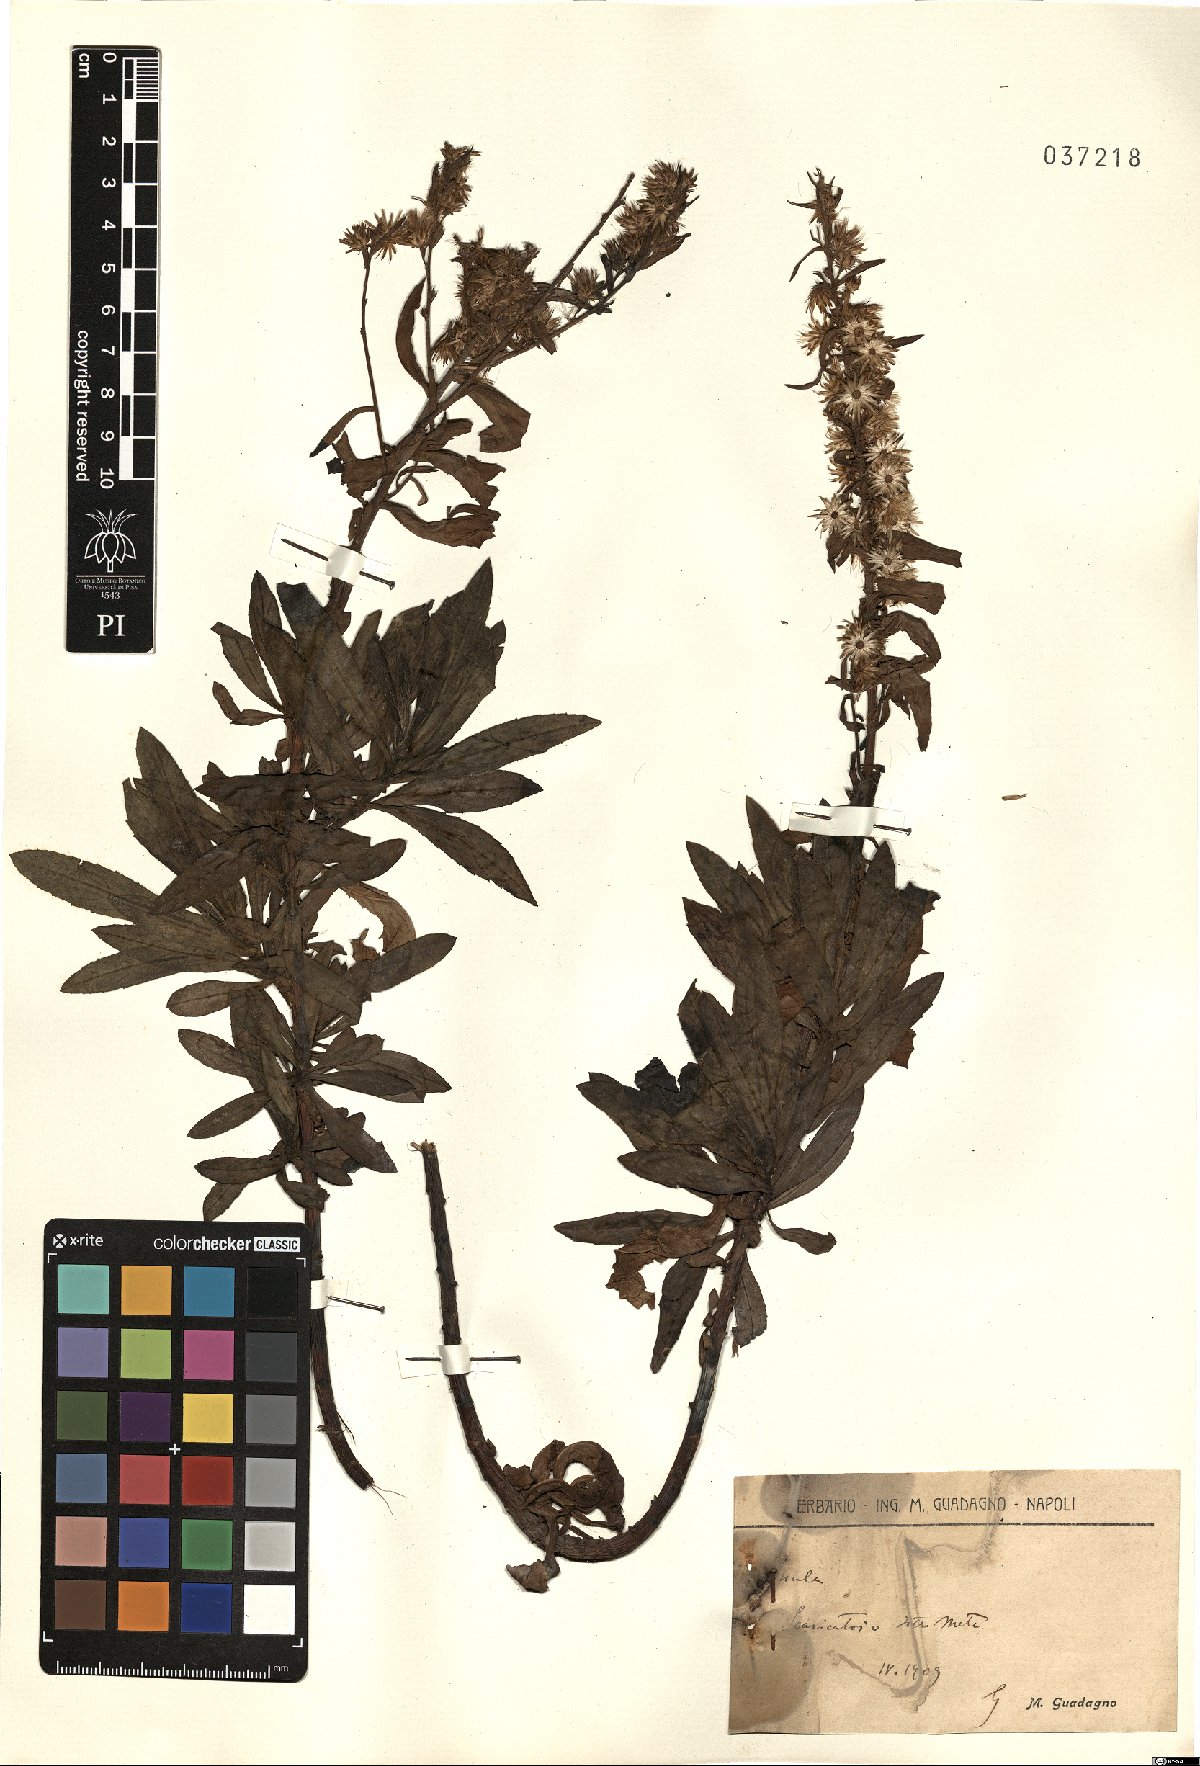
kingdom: Plantae
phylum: Tracheophyta
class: Magnoliopsida
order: Asterales
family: Asteraceae
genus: Inula
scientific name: Inula
